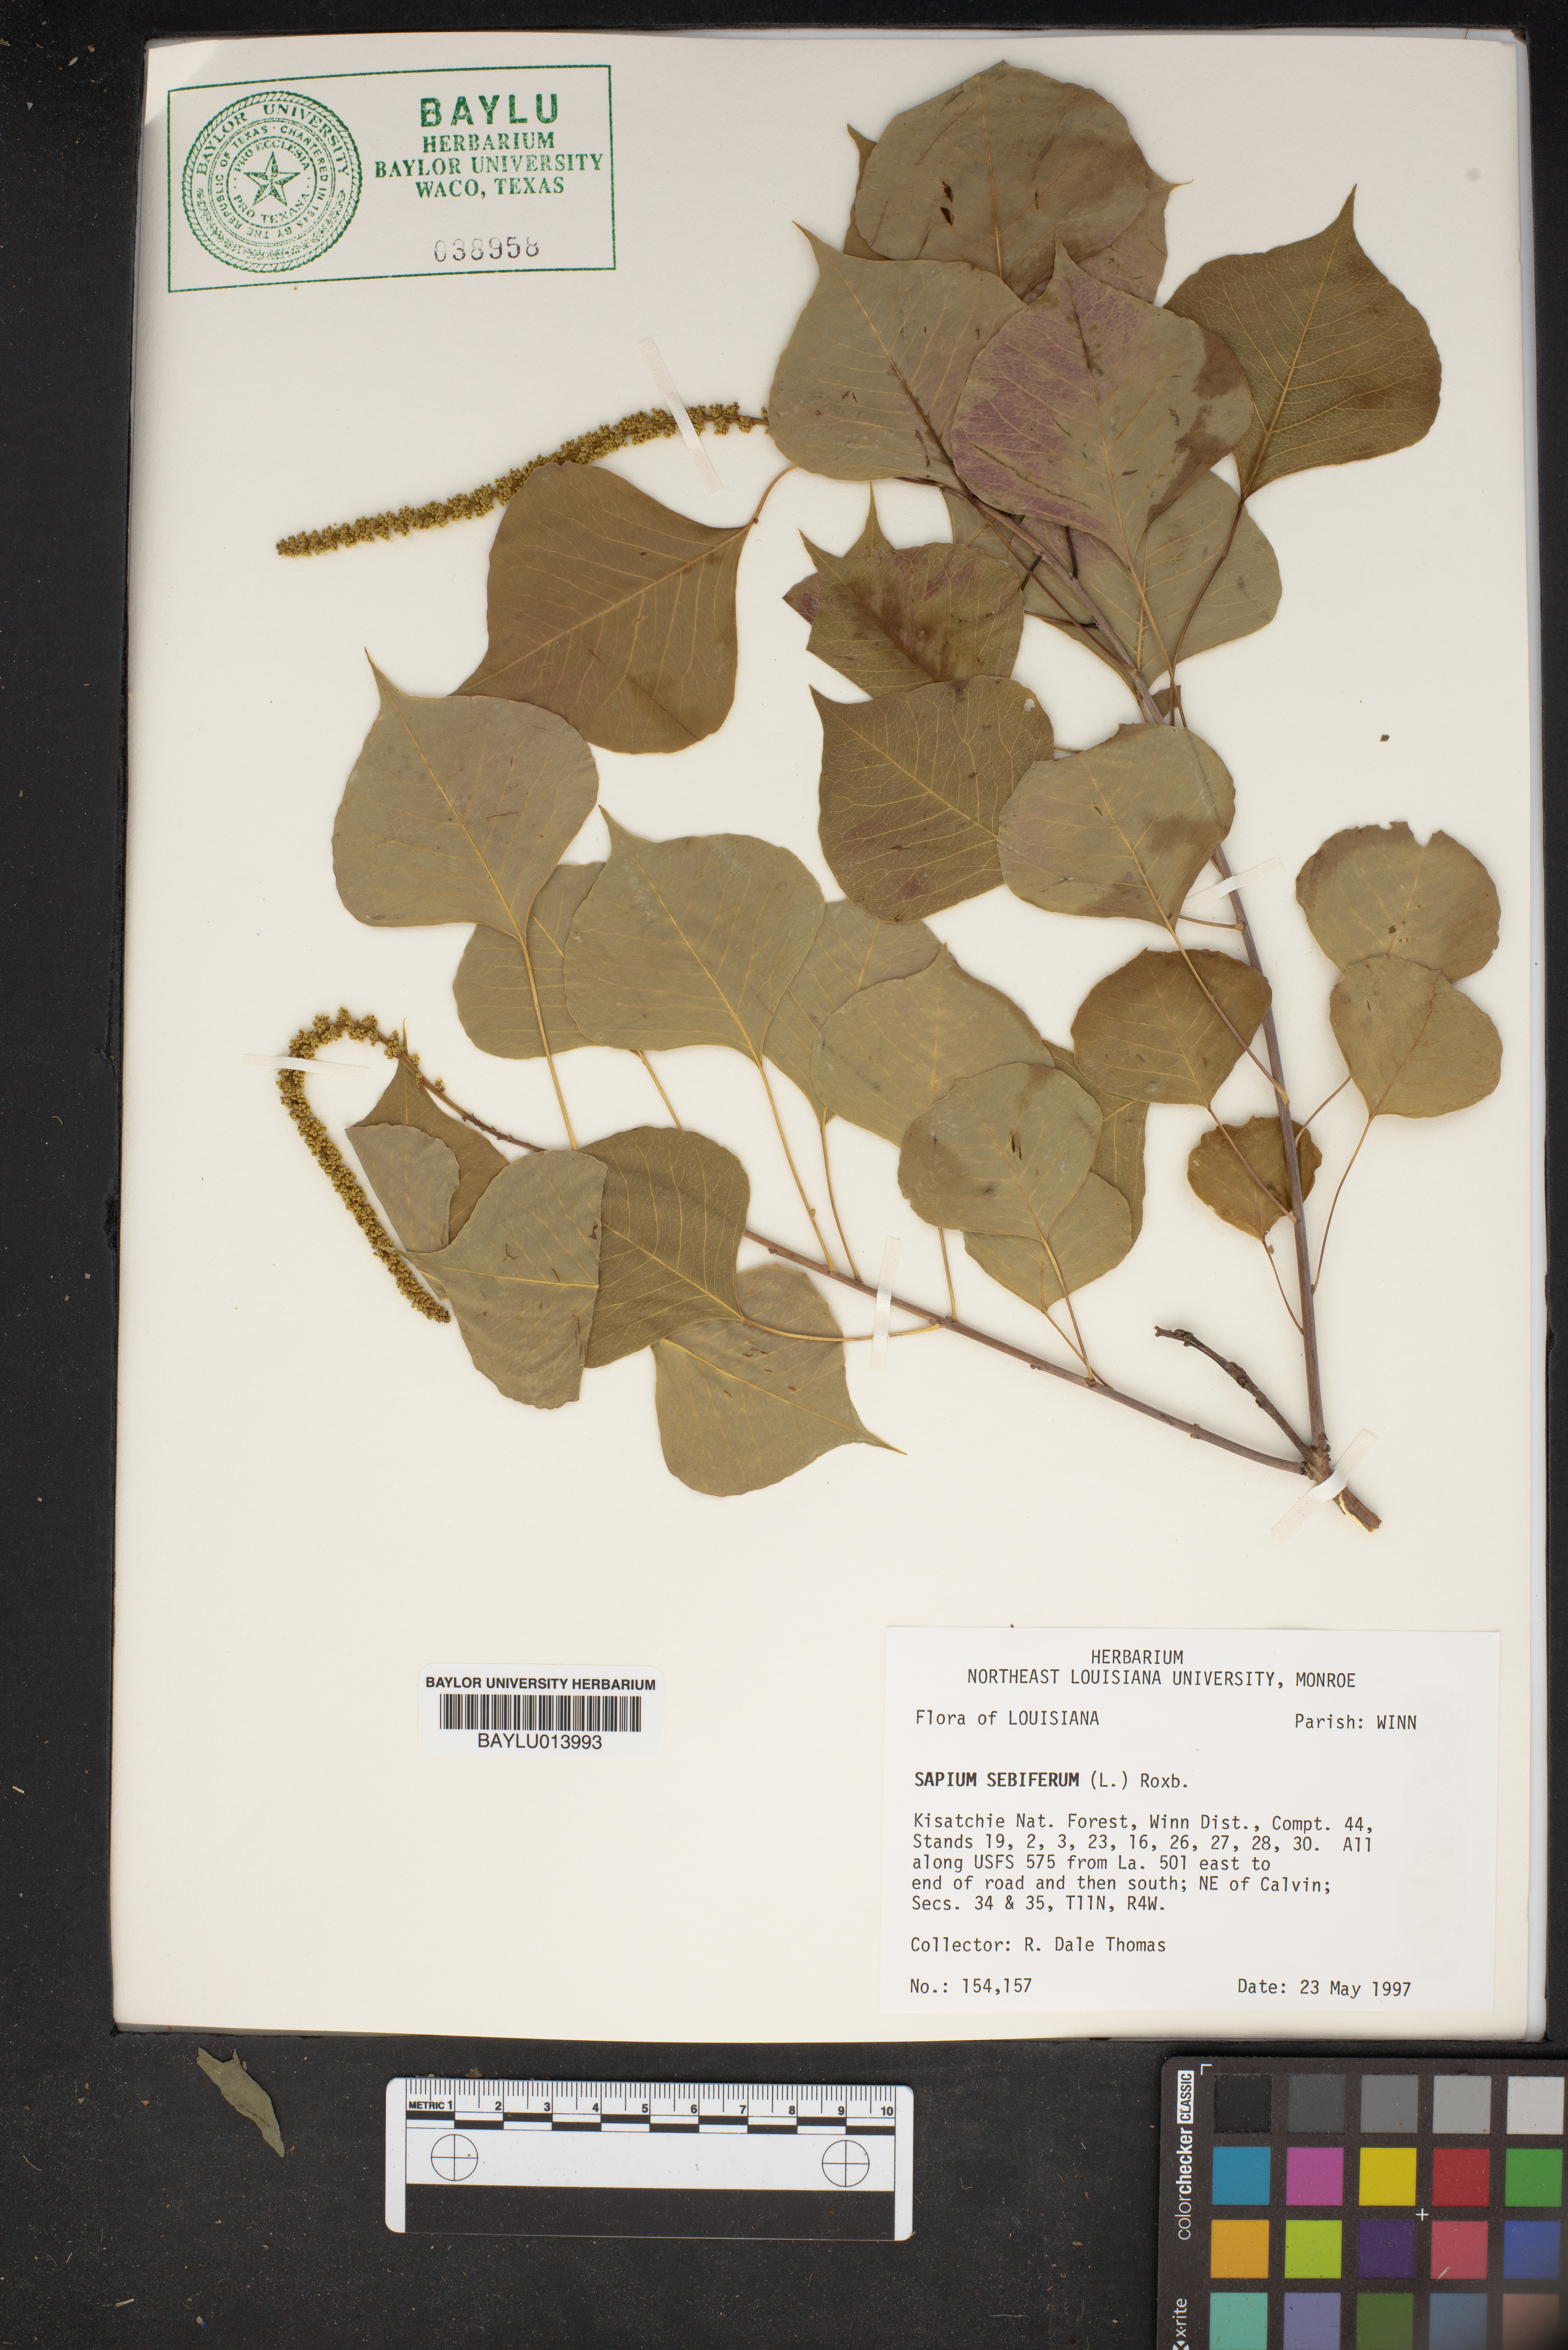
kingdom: Plantae
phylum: Tracheophyta
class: Magnoliopsida
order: Malpighiales
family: Euphorbiaceae
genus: Triadica
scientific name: Triadica sebifera
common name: Chinese tallow
